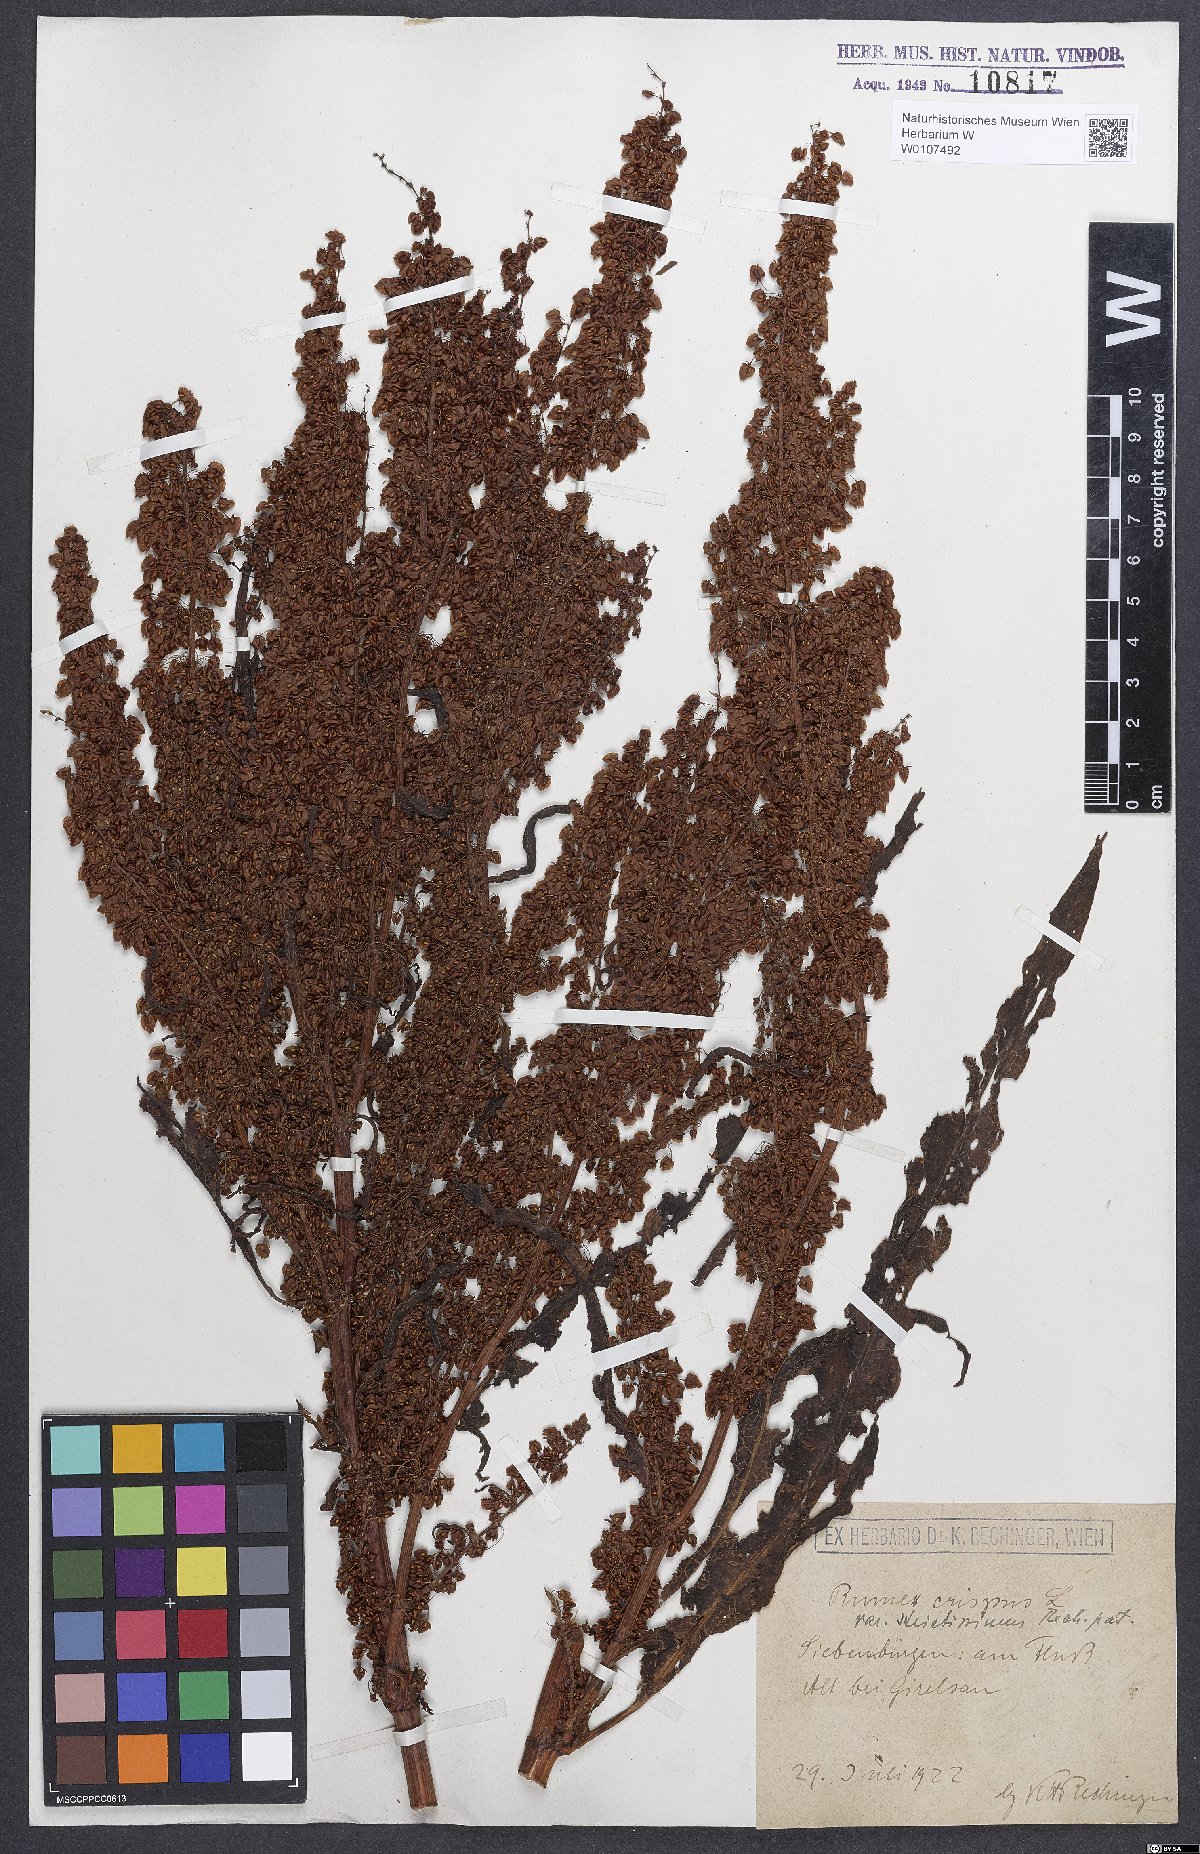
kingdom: Plantae
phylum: Tracheophyta
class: Magnoliopsida
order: Caryophyllales
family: Polygonaceae
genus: Rumex
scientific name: Rumex crispus
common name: Curled dock
